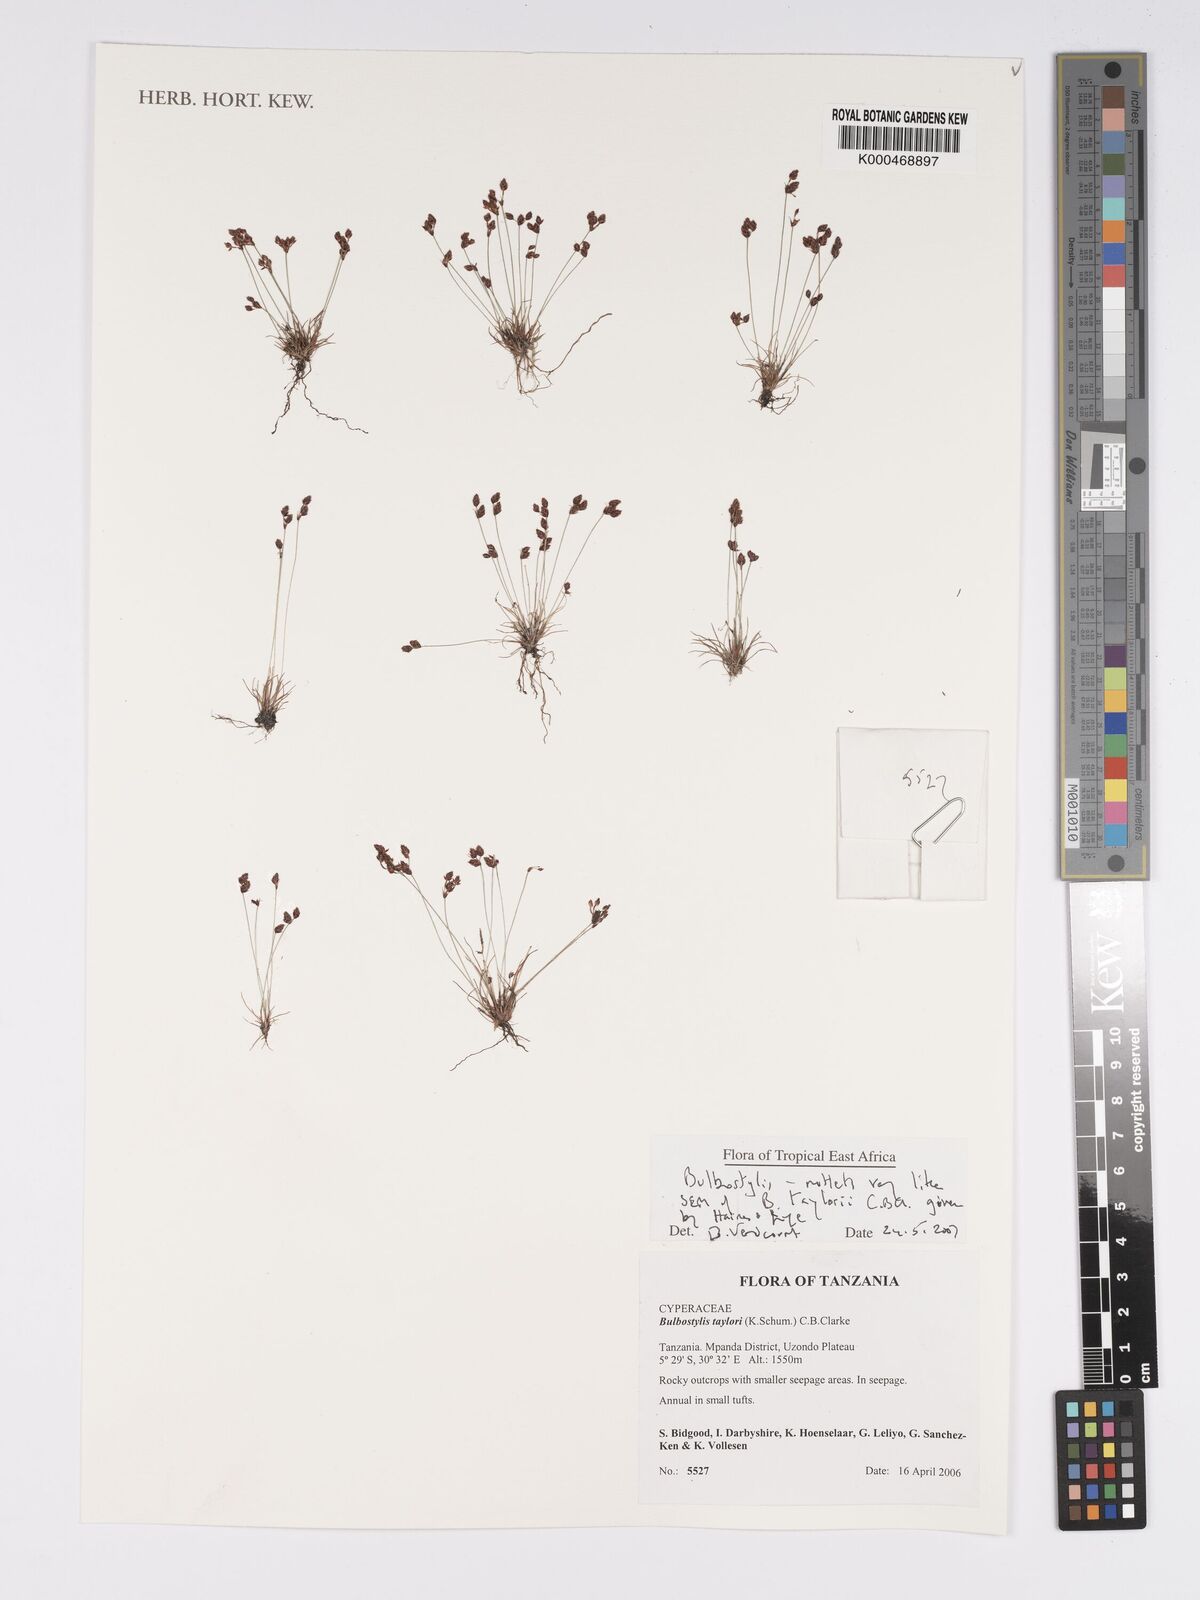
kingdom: Plantae
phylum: Tracheophyta
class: Liliopsida
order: Poales
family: Cyperaceae
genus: Bulbostylis
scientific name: Bulbostylis taylorii
